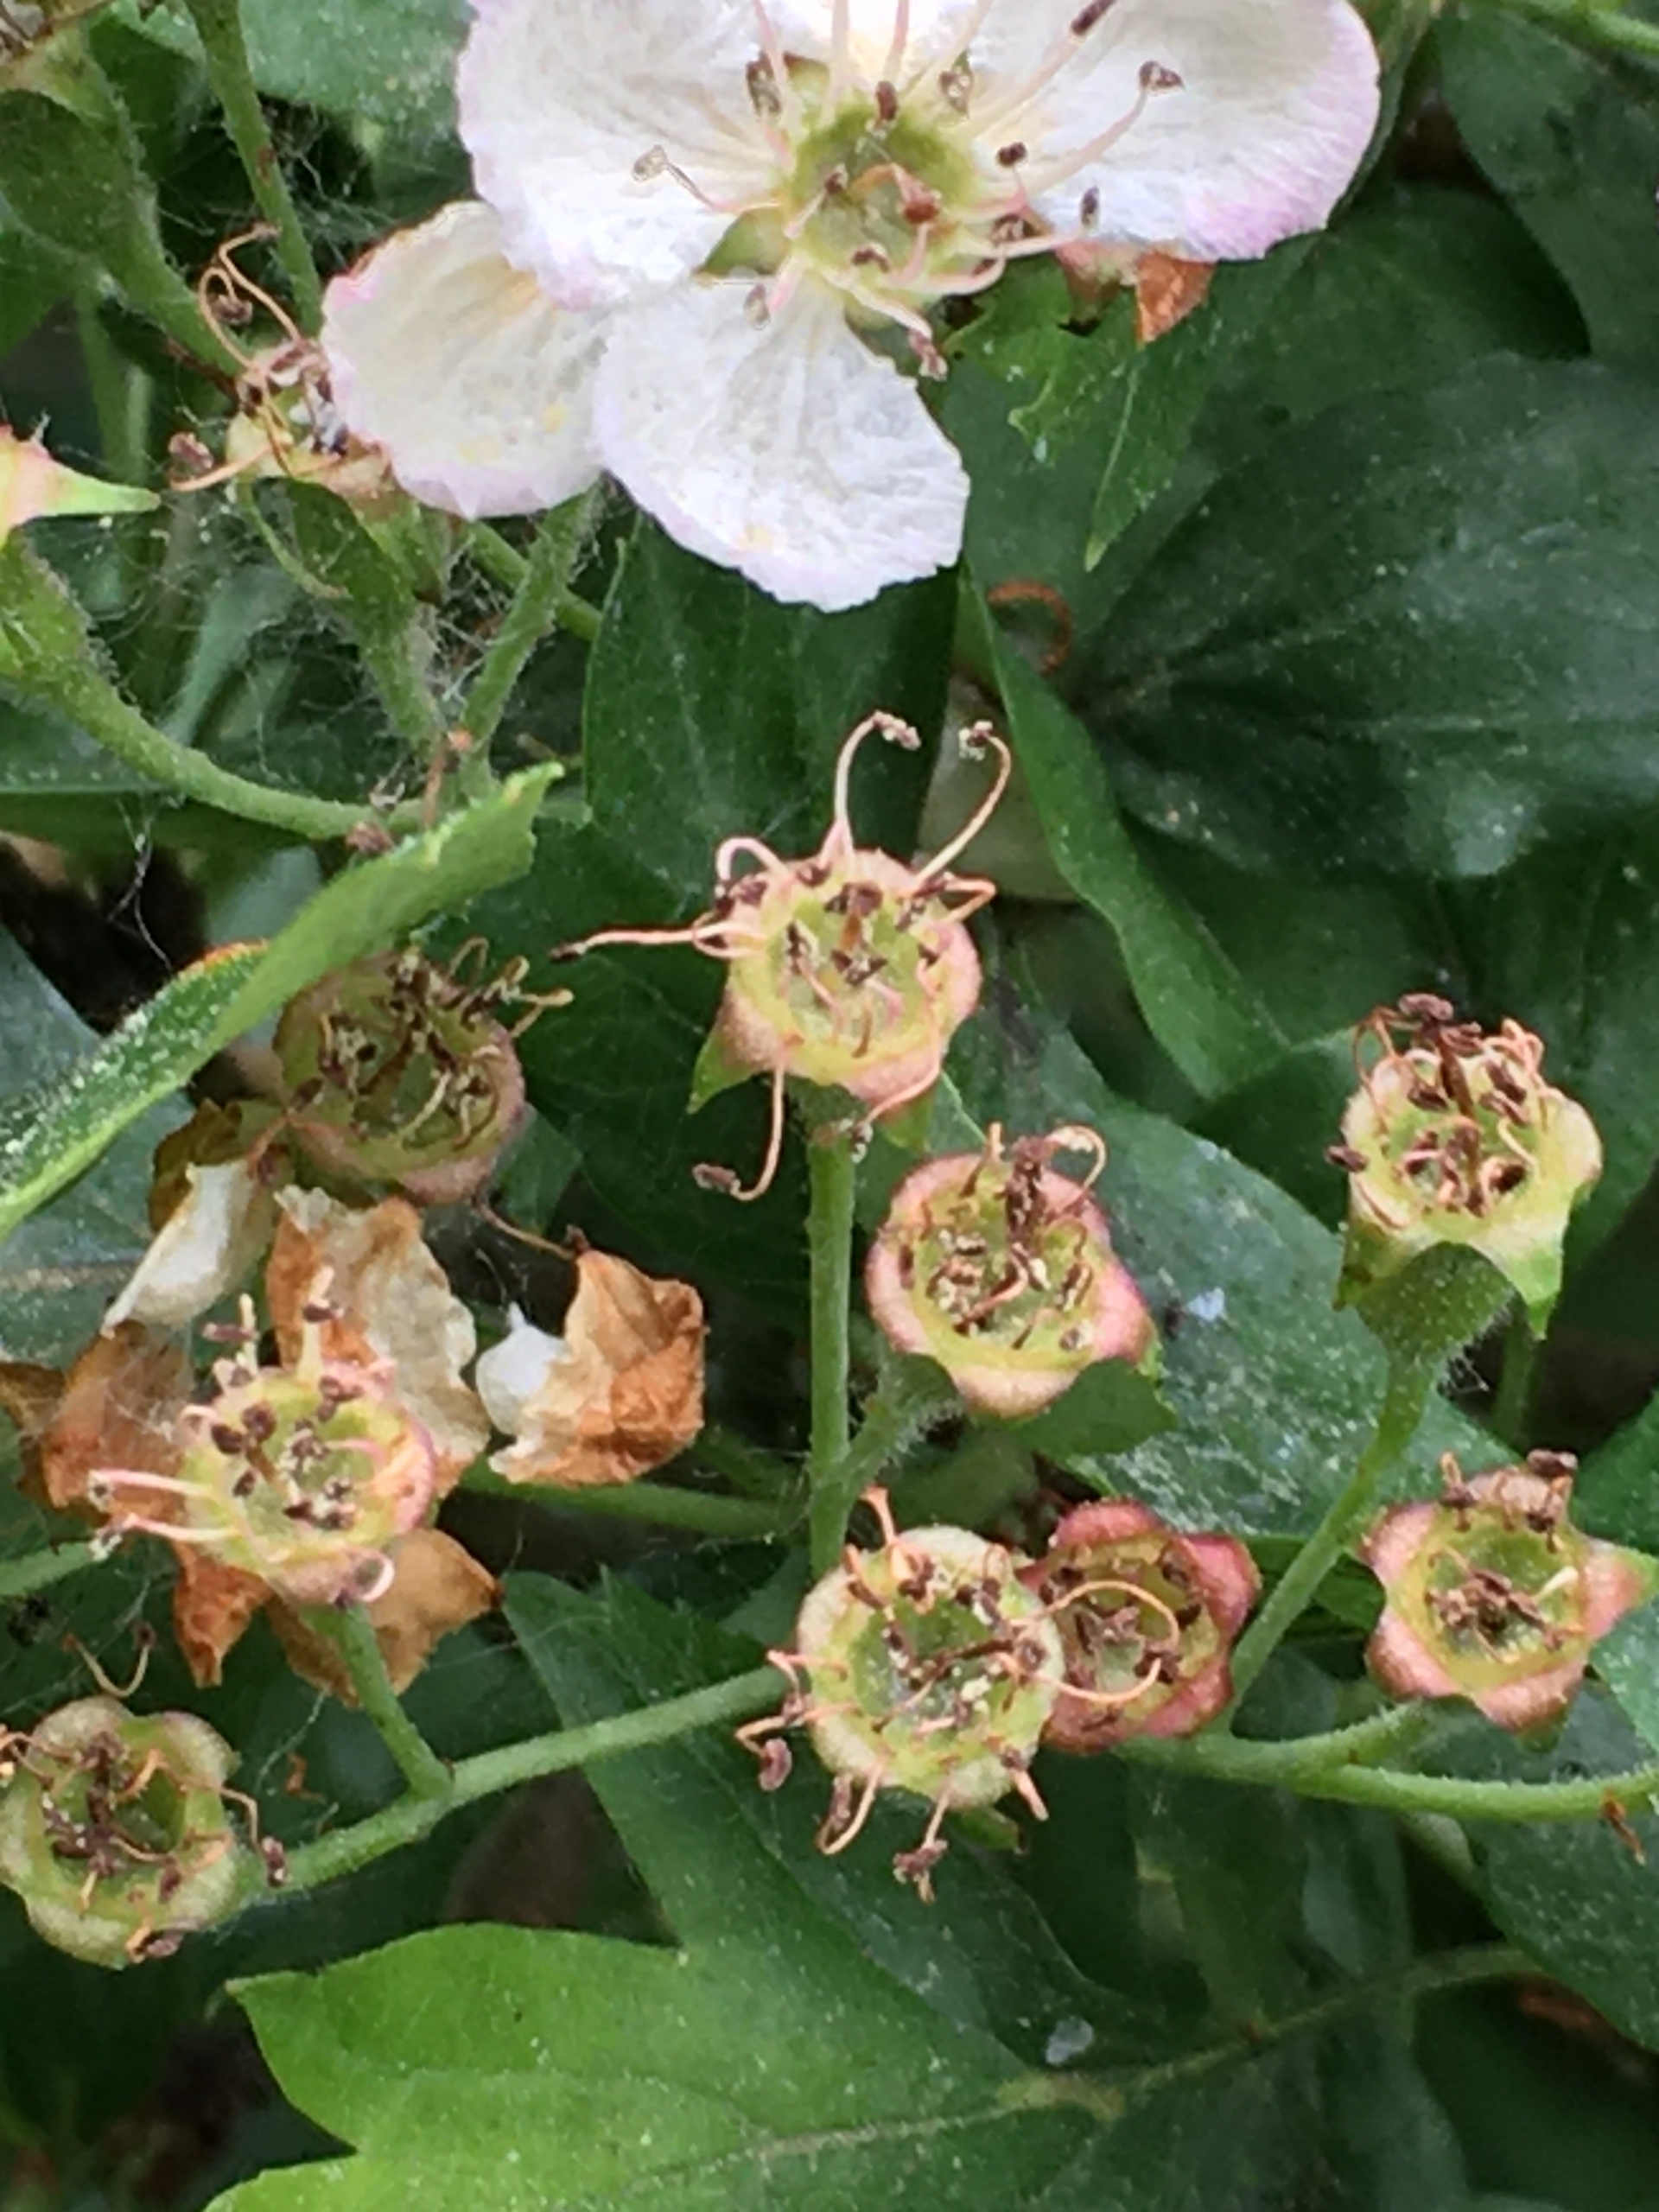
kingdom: Plantae
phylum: Tracheophyta
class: Magnoliopsida
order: Rosales
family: Rosaceae
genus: Crataegus
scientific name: Crataegus monogyna
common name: Engriflet hvidtjørn
